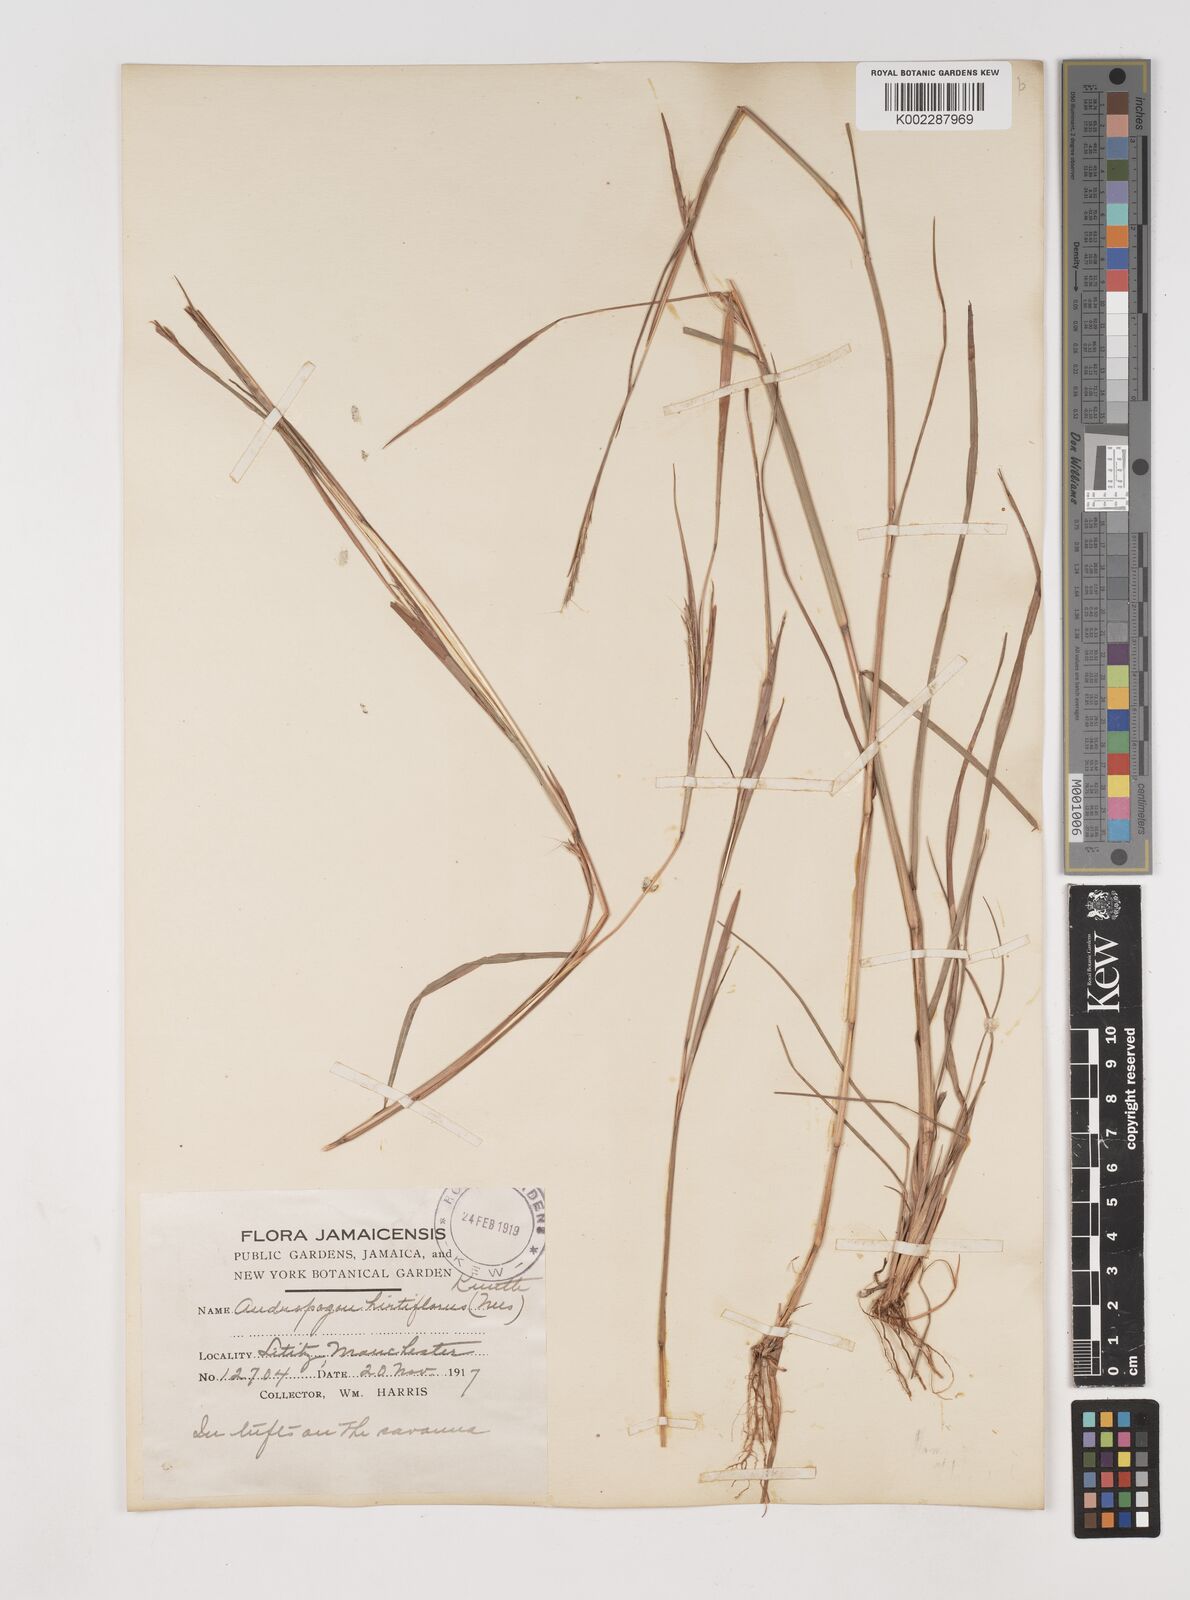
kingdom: Plantae
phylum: Tracheophyta
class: Liliopsida
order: Poales
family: Poaceae
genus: Schizachyrium
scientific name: Schizachyrium sanguineum
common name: Crimson bluestem
